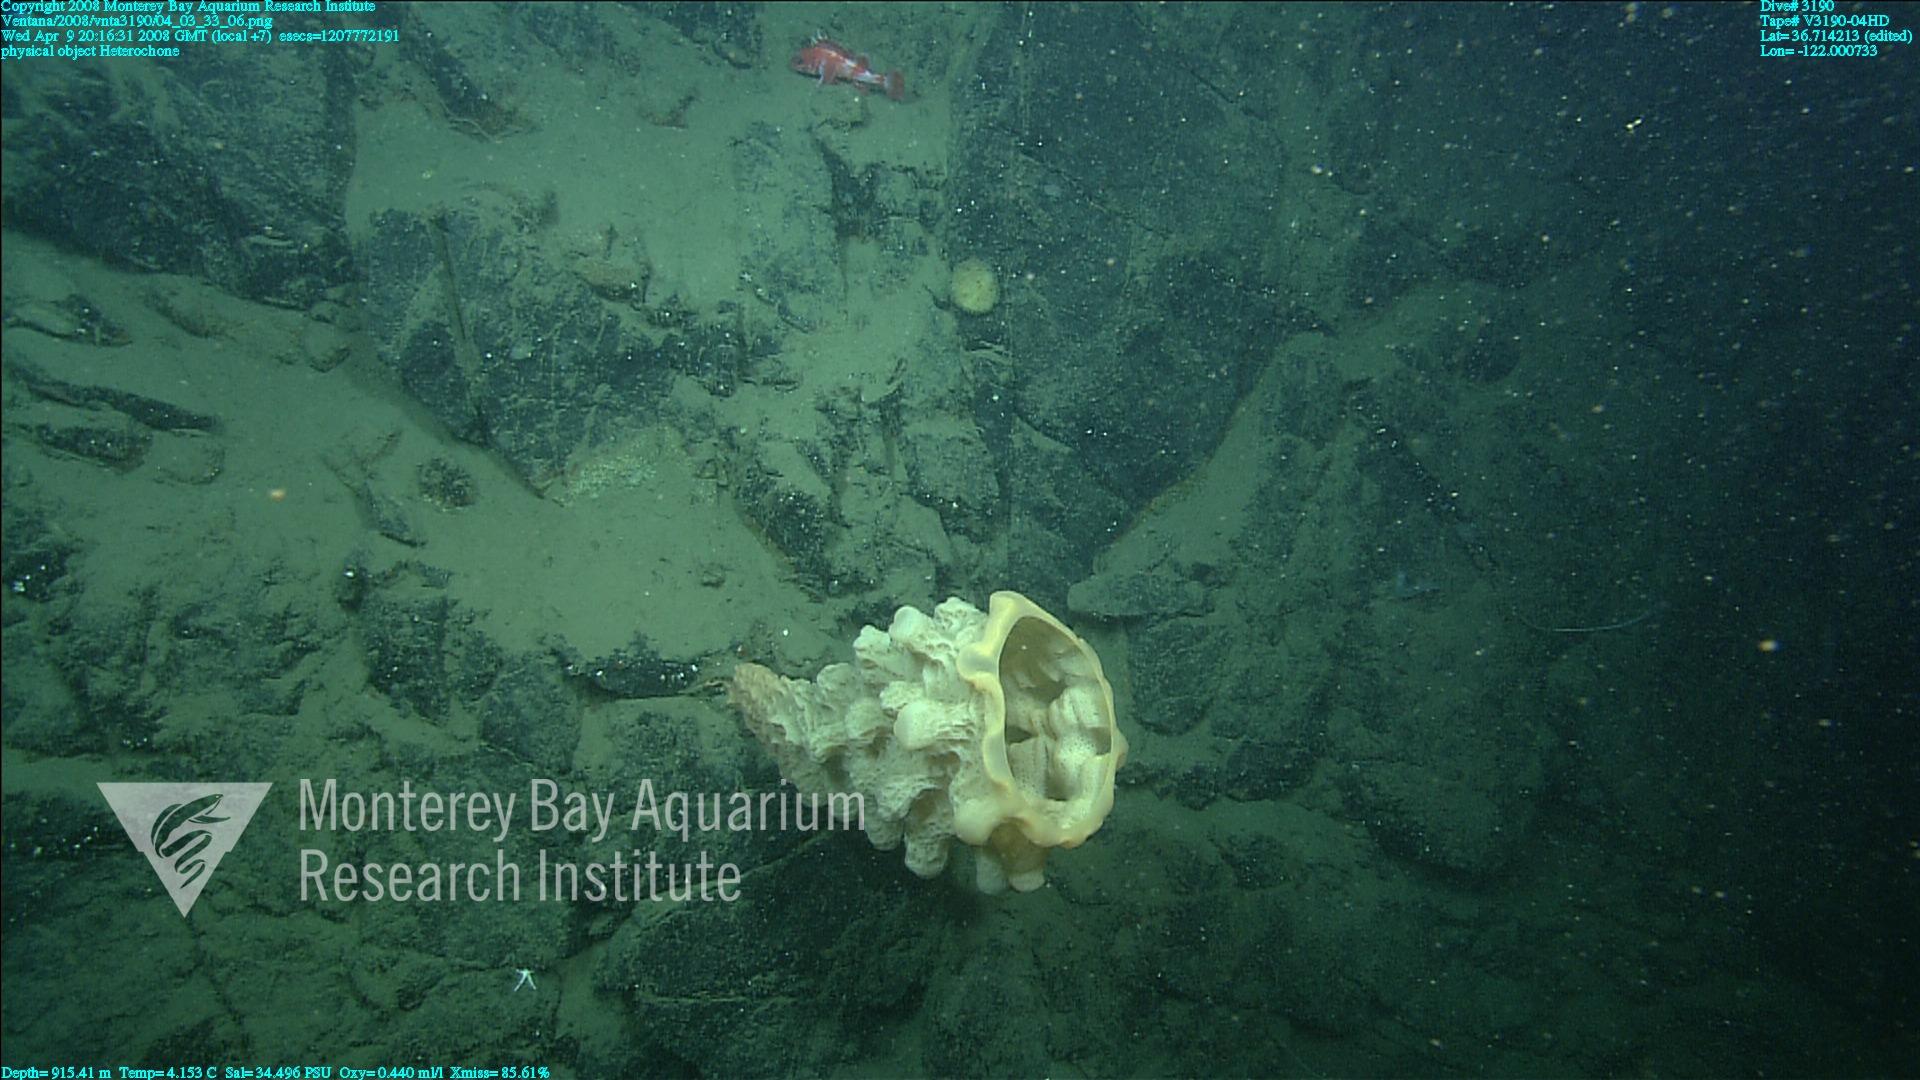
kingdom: Animalia
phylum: Porifera
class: Hexactinellida
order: Sceptrulophora
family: Aphrocallistidae
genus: Heterochone
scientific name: Heterochone
